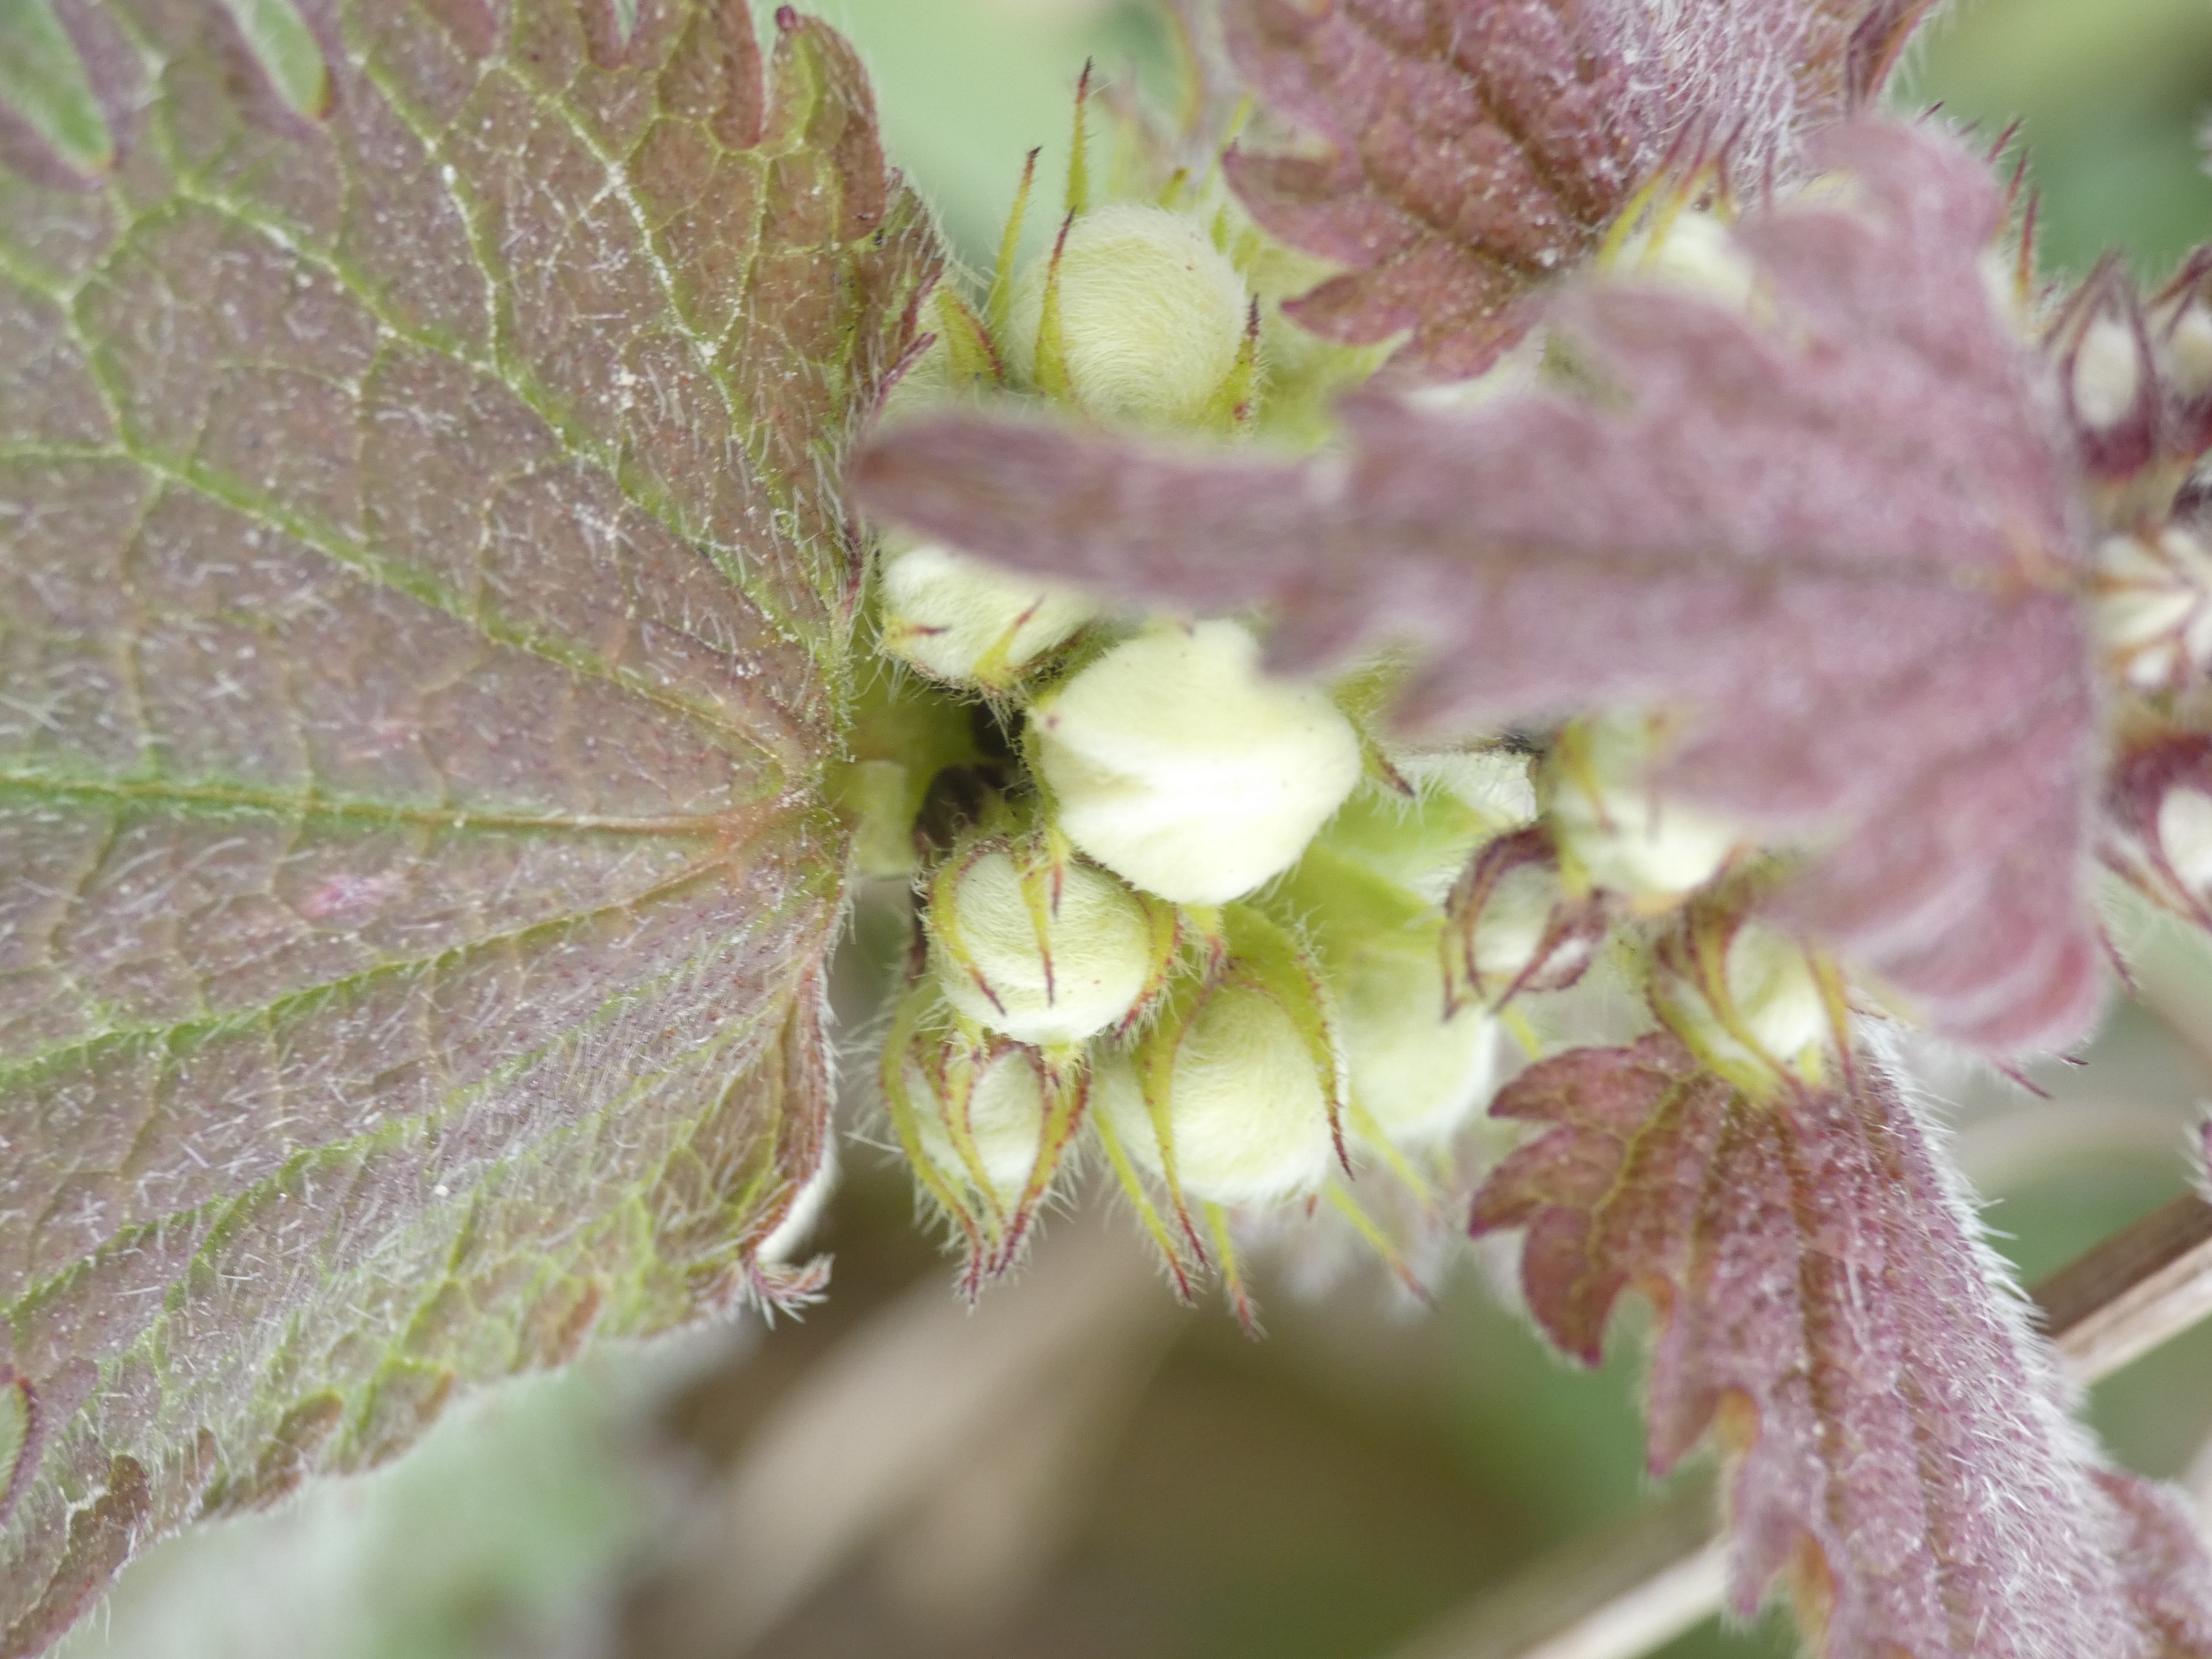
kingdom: Plantae
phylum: Tracheophyta
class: Magnoliopsida
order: Lamiales
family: Lamiaceae
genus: Lamium
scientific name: Lamium album
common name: Døvnælde
